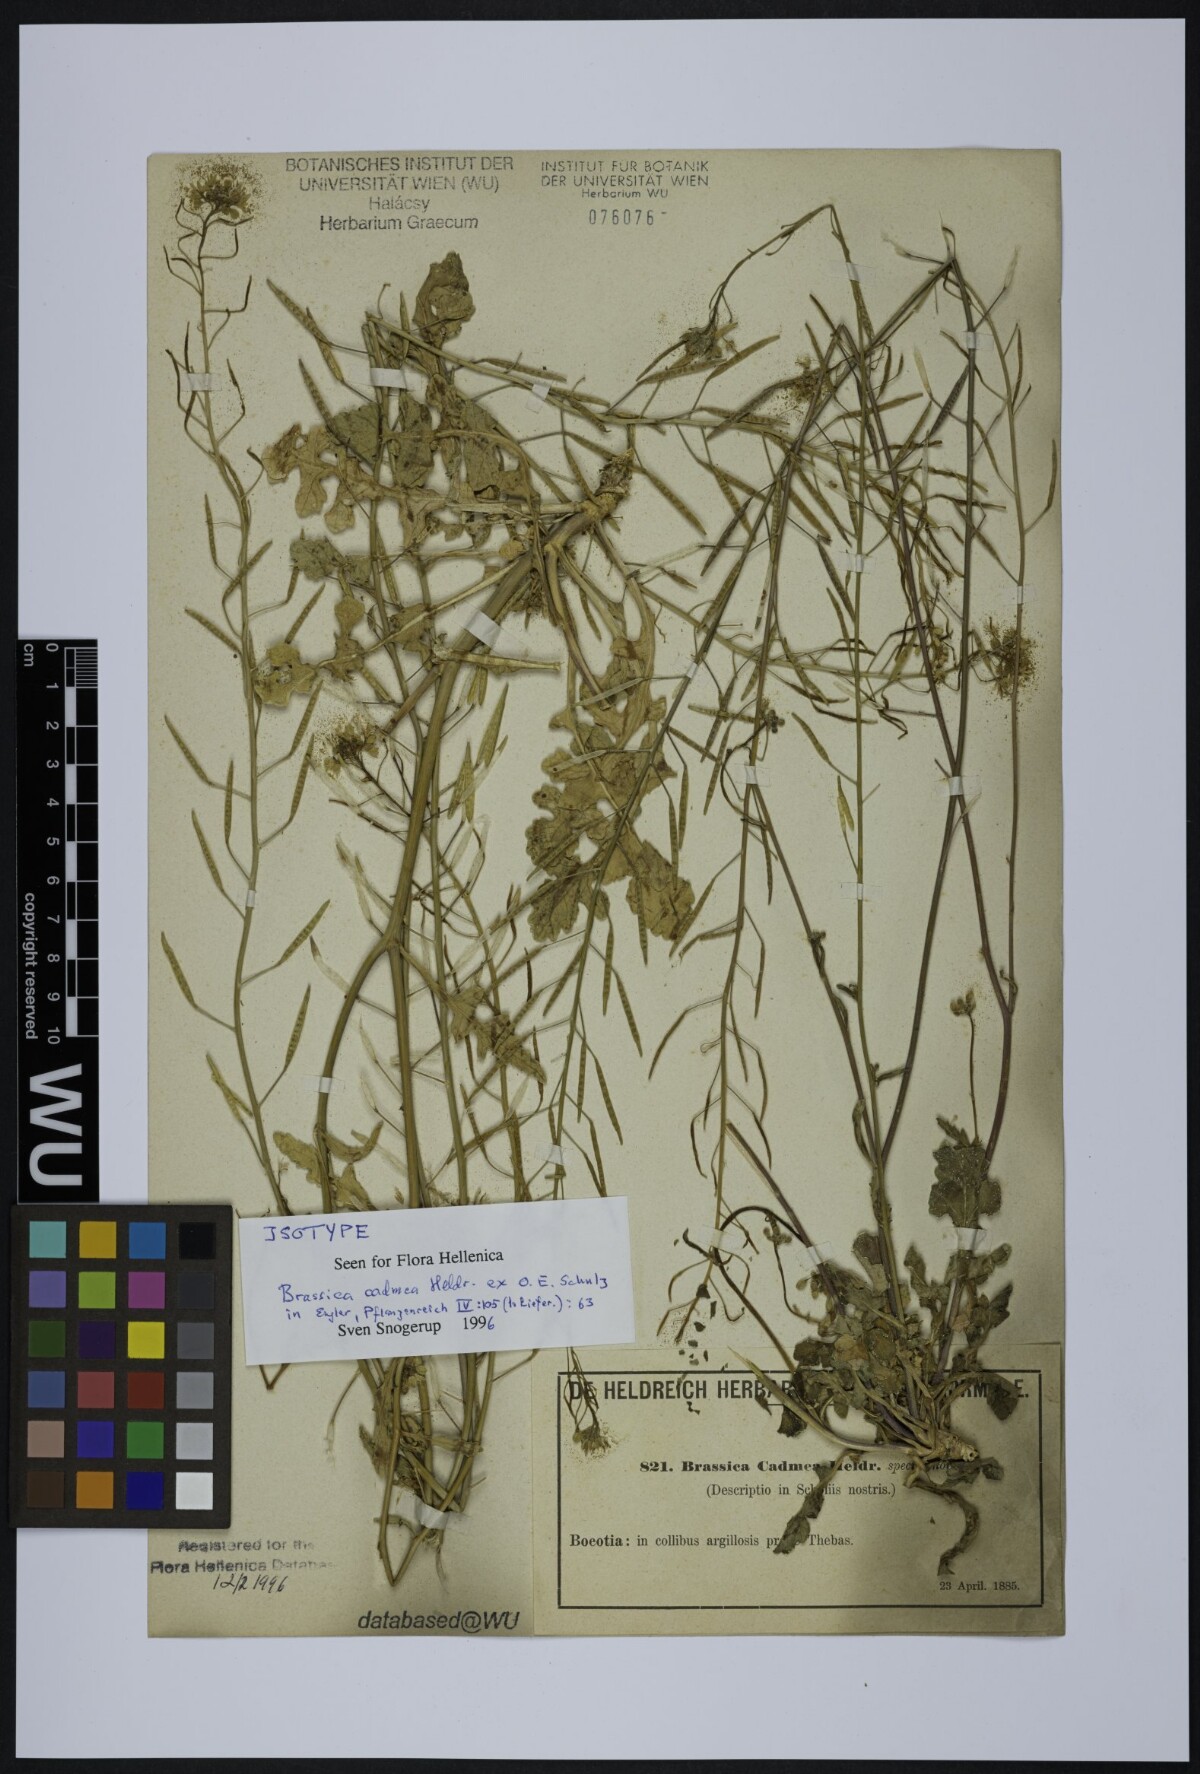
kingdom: Plantae
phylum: Tracheophyta
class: Magnoliopsida
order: Brassicales
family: Brassicaceae
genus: Brassica
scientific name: Brassica cadmea
